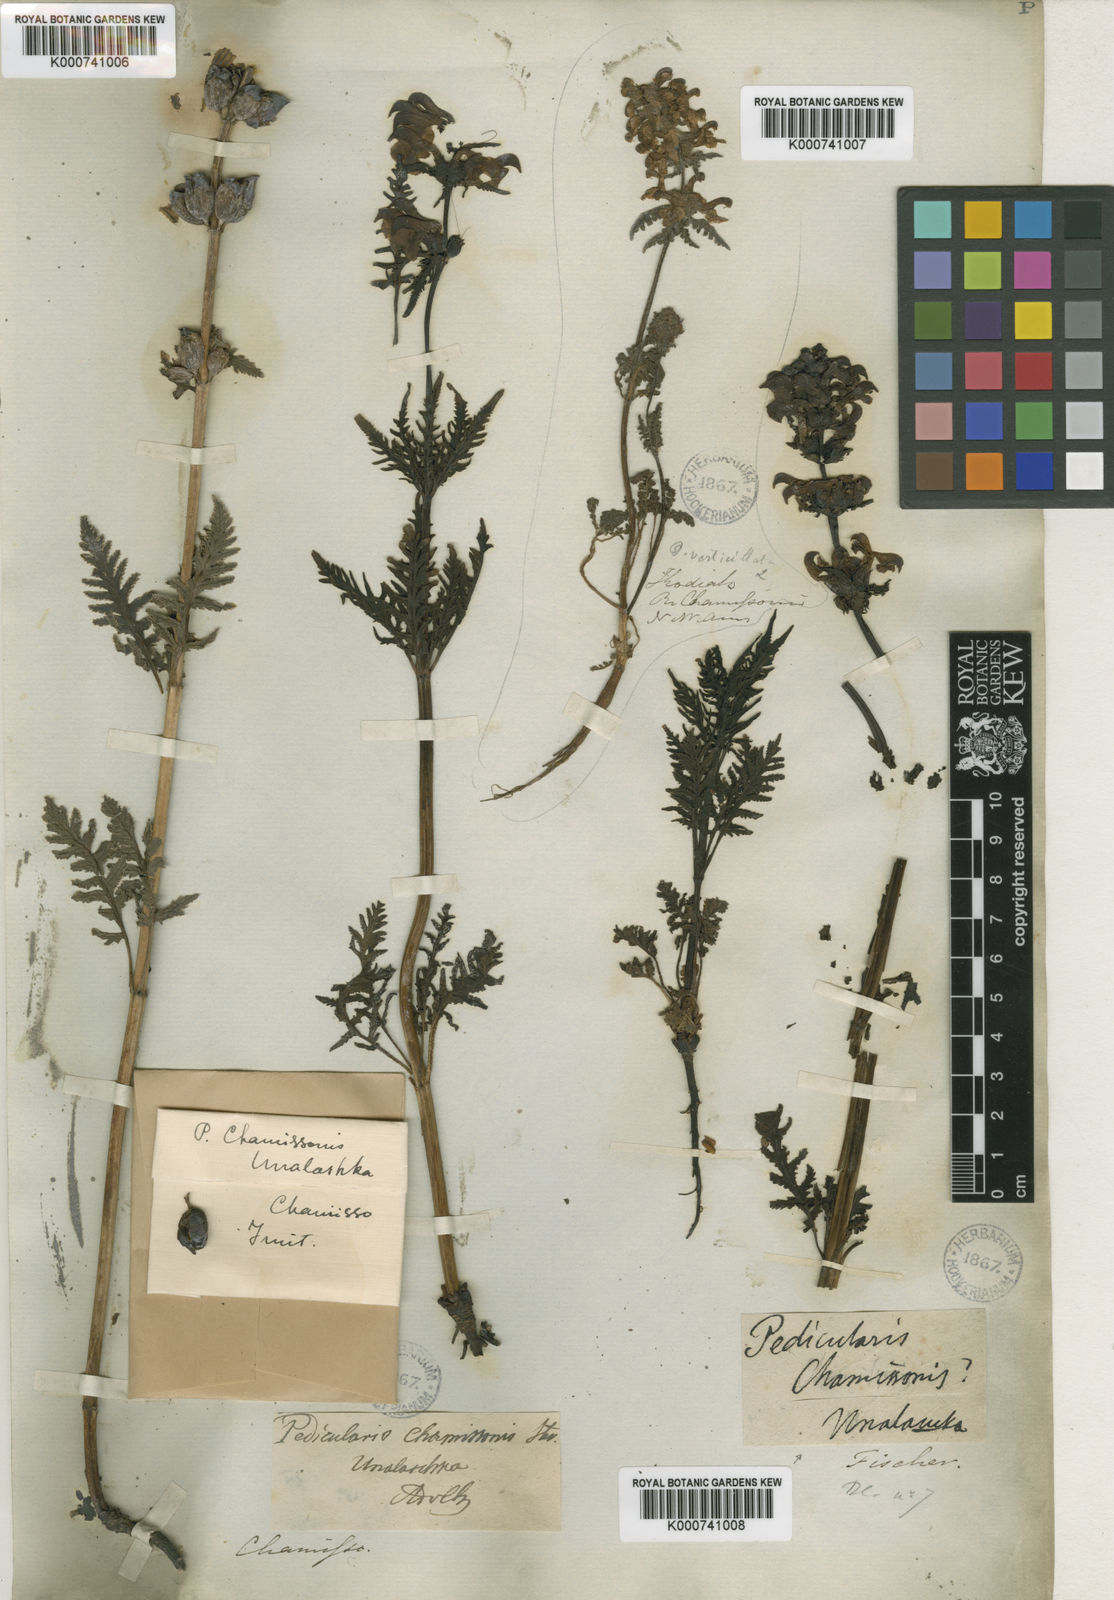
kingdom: Plantae
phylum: Tracheophyta
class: Magnoliopsida
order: Lamiales
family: Orobanchaceae
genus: Pedicularis
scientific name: Pedicularis chamissonis
